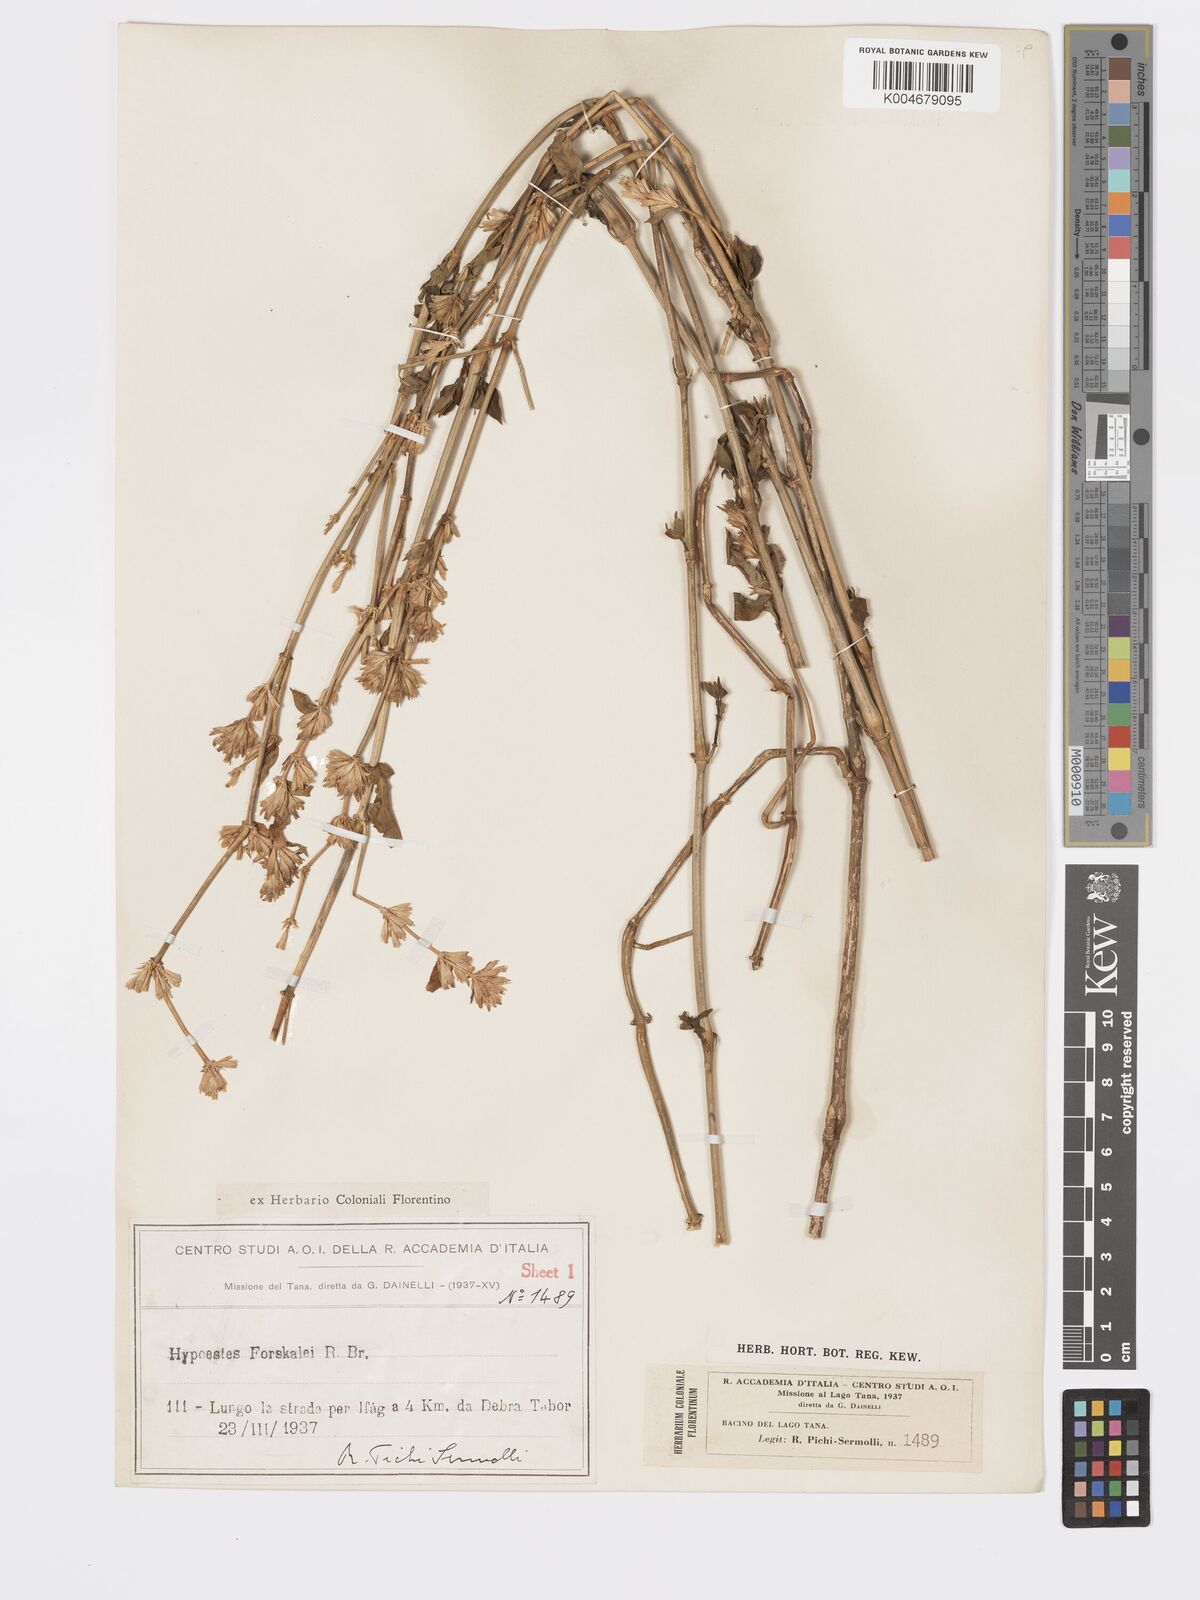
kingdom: Plantae
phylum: Tracheophyta
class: Magnoliopsida
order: Lamiales
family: Acanthaceae
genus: Hypoestes
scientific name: Hypoestes forskaolii
